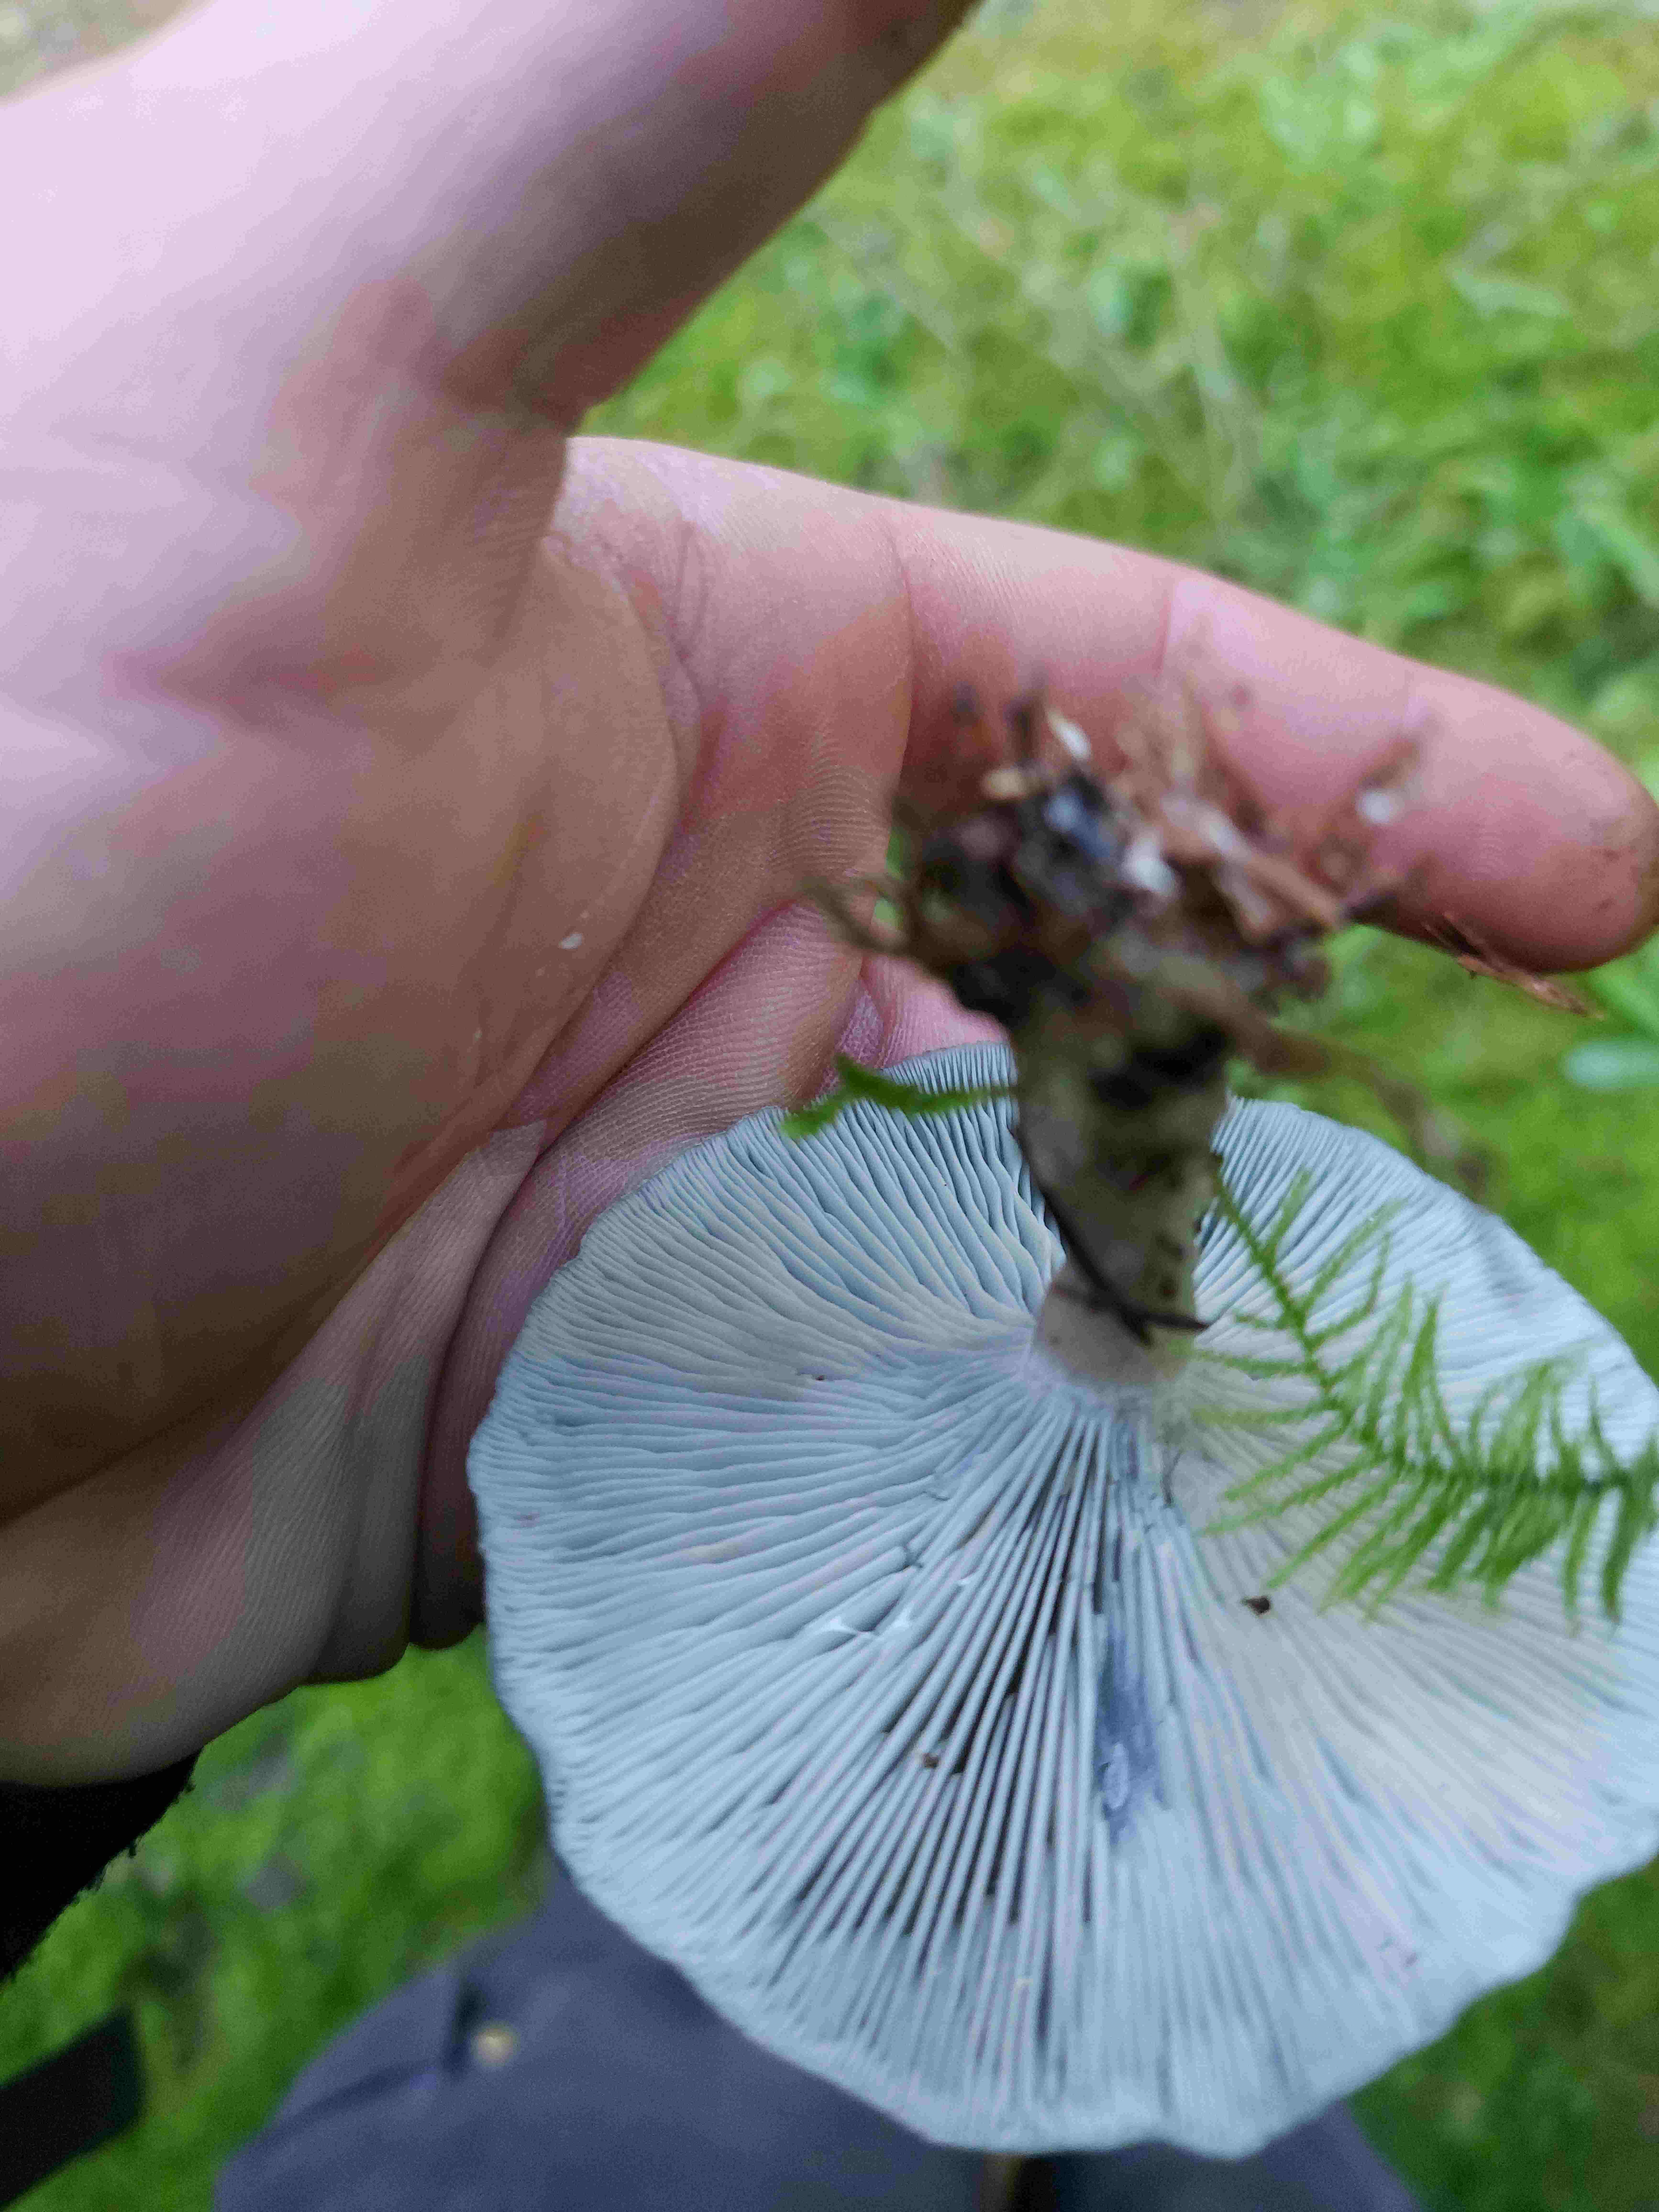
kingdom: Fungi
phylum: Basidiomycota
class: Agaricomycetes
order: Agaricales
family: Tricholomataceae
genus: Clitocybe
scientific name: Clitocybe odora
